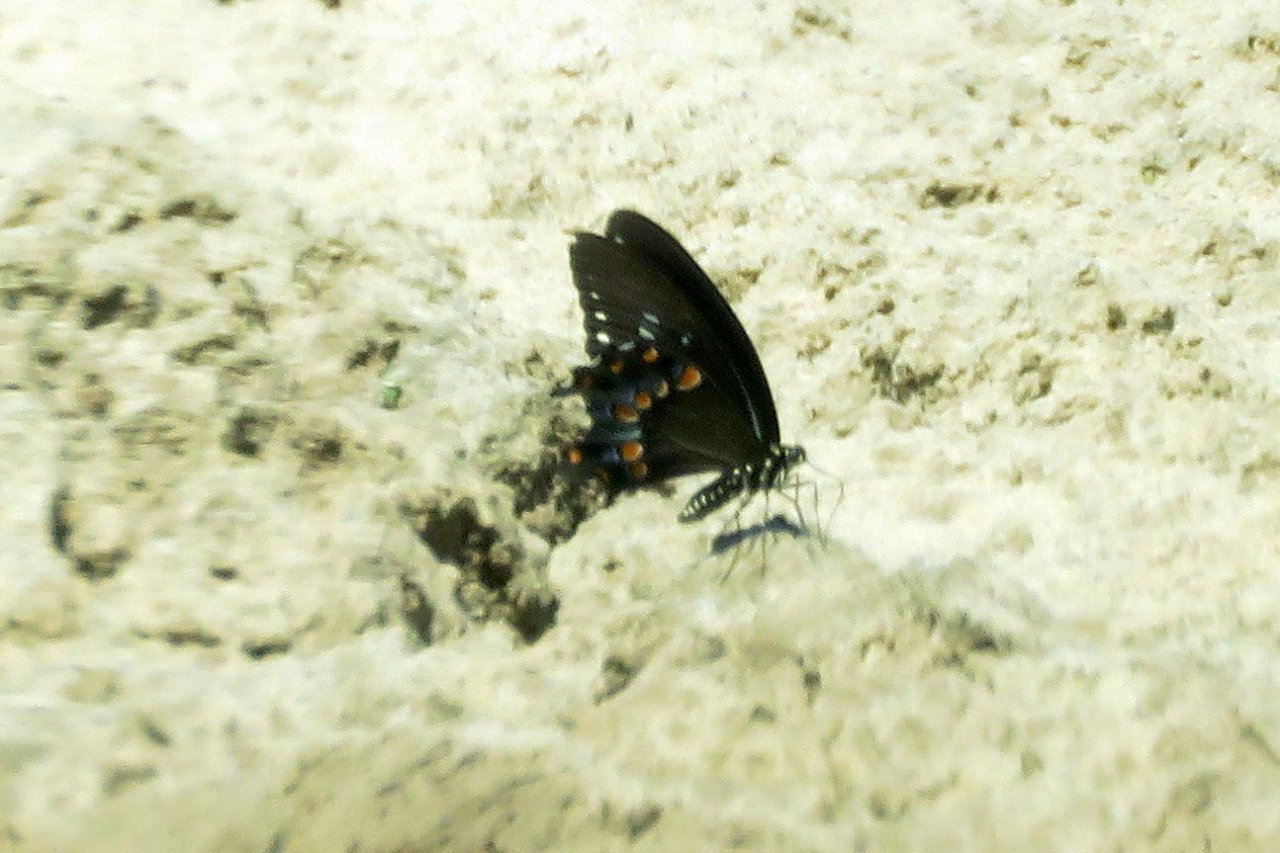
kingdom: Animalia
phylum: Arthropoda
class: Insecta
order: Lepidoptera
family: Papilionidae
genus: Pterourus
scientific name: Pterourus troilus
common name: Spicebush Swallowtail
